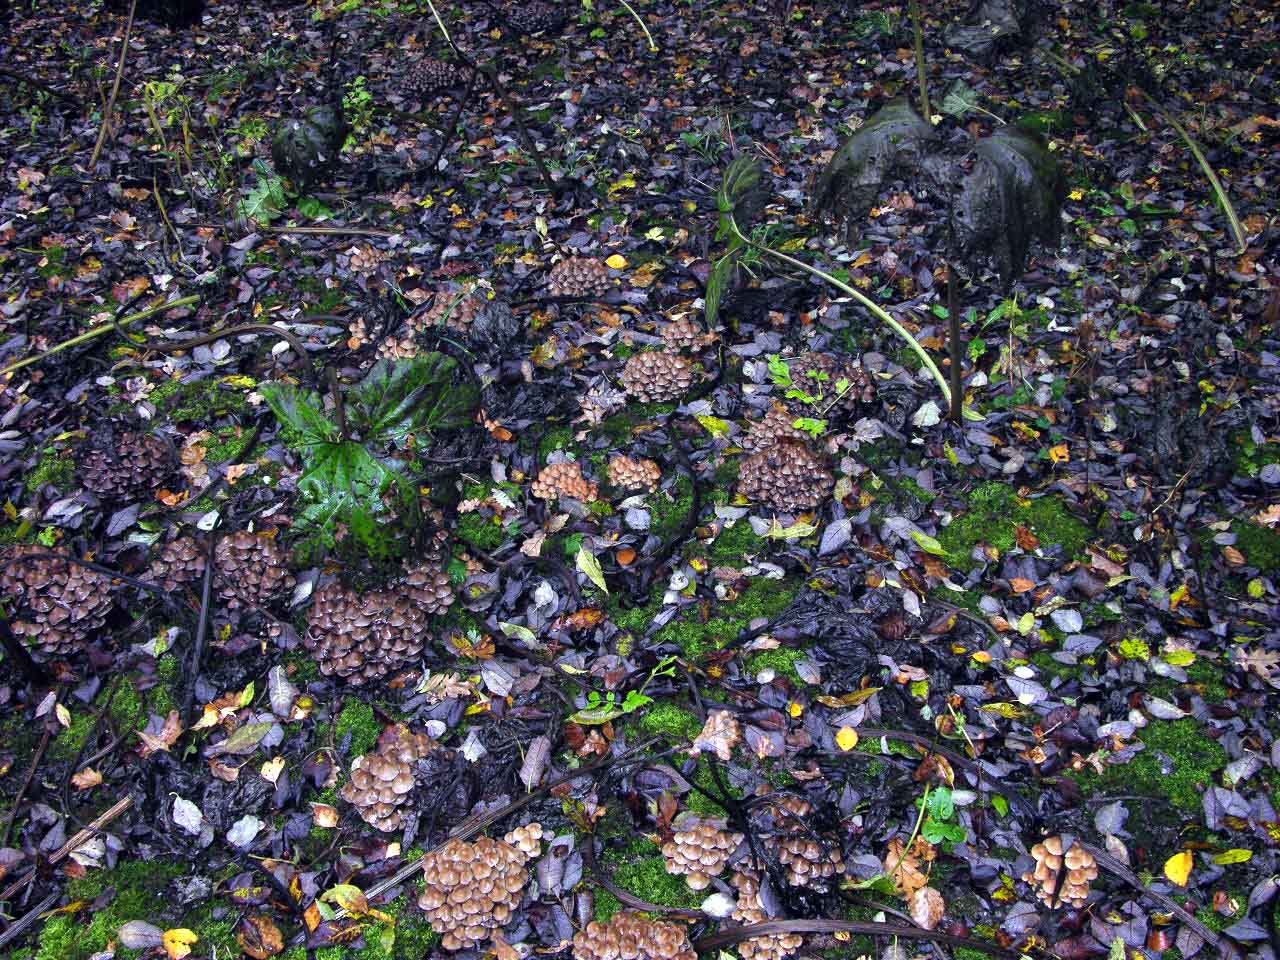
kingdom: Fungi
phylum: Basidiomycota
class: Agaricomycetes
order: Agaricales
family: Psathyrellaceae
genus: Britzelmayria
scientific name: Britzelmayria multipedata
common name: knippe-mørkhat
